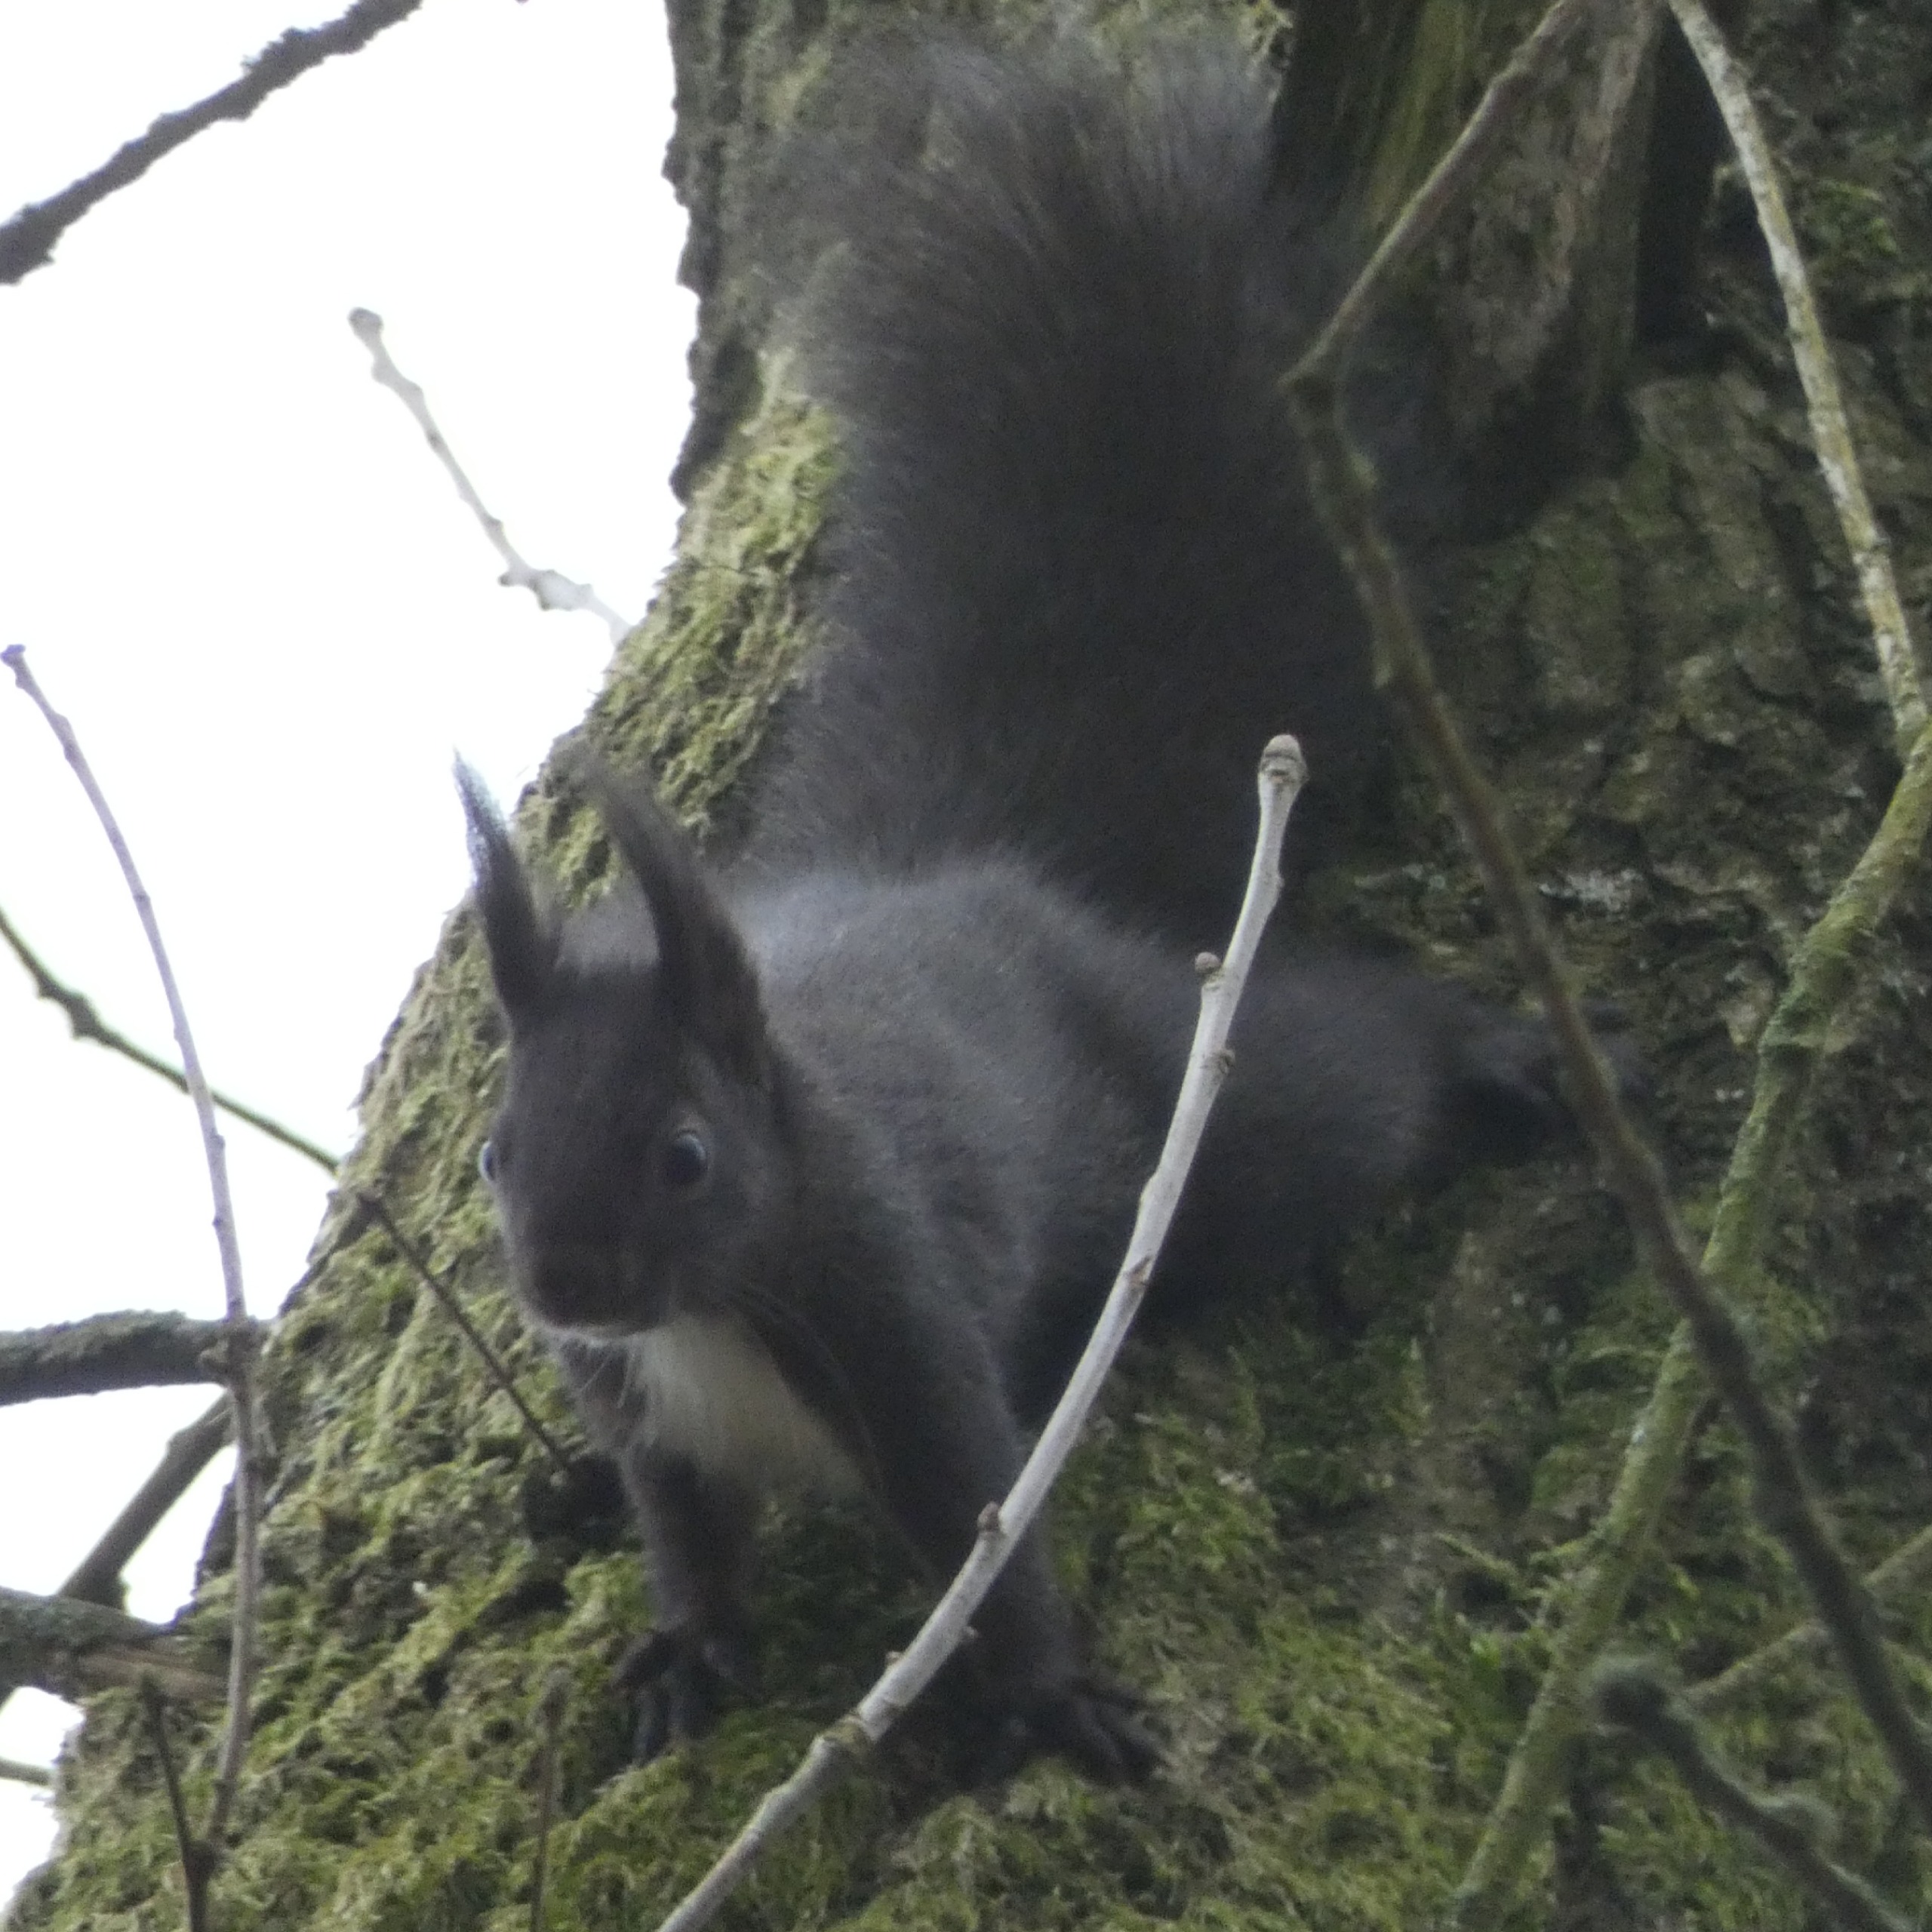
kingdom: Animalia
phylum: Chordata
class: Mammalia
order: Rodentia
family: Sciuridae
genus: Sciurus
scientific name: Sciurus vulgaris
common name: Egern
